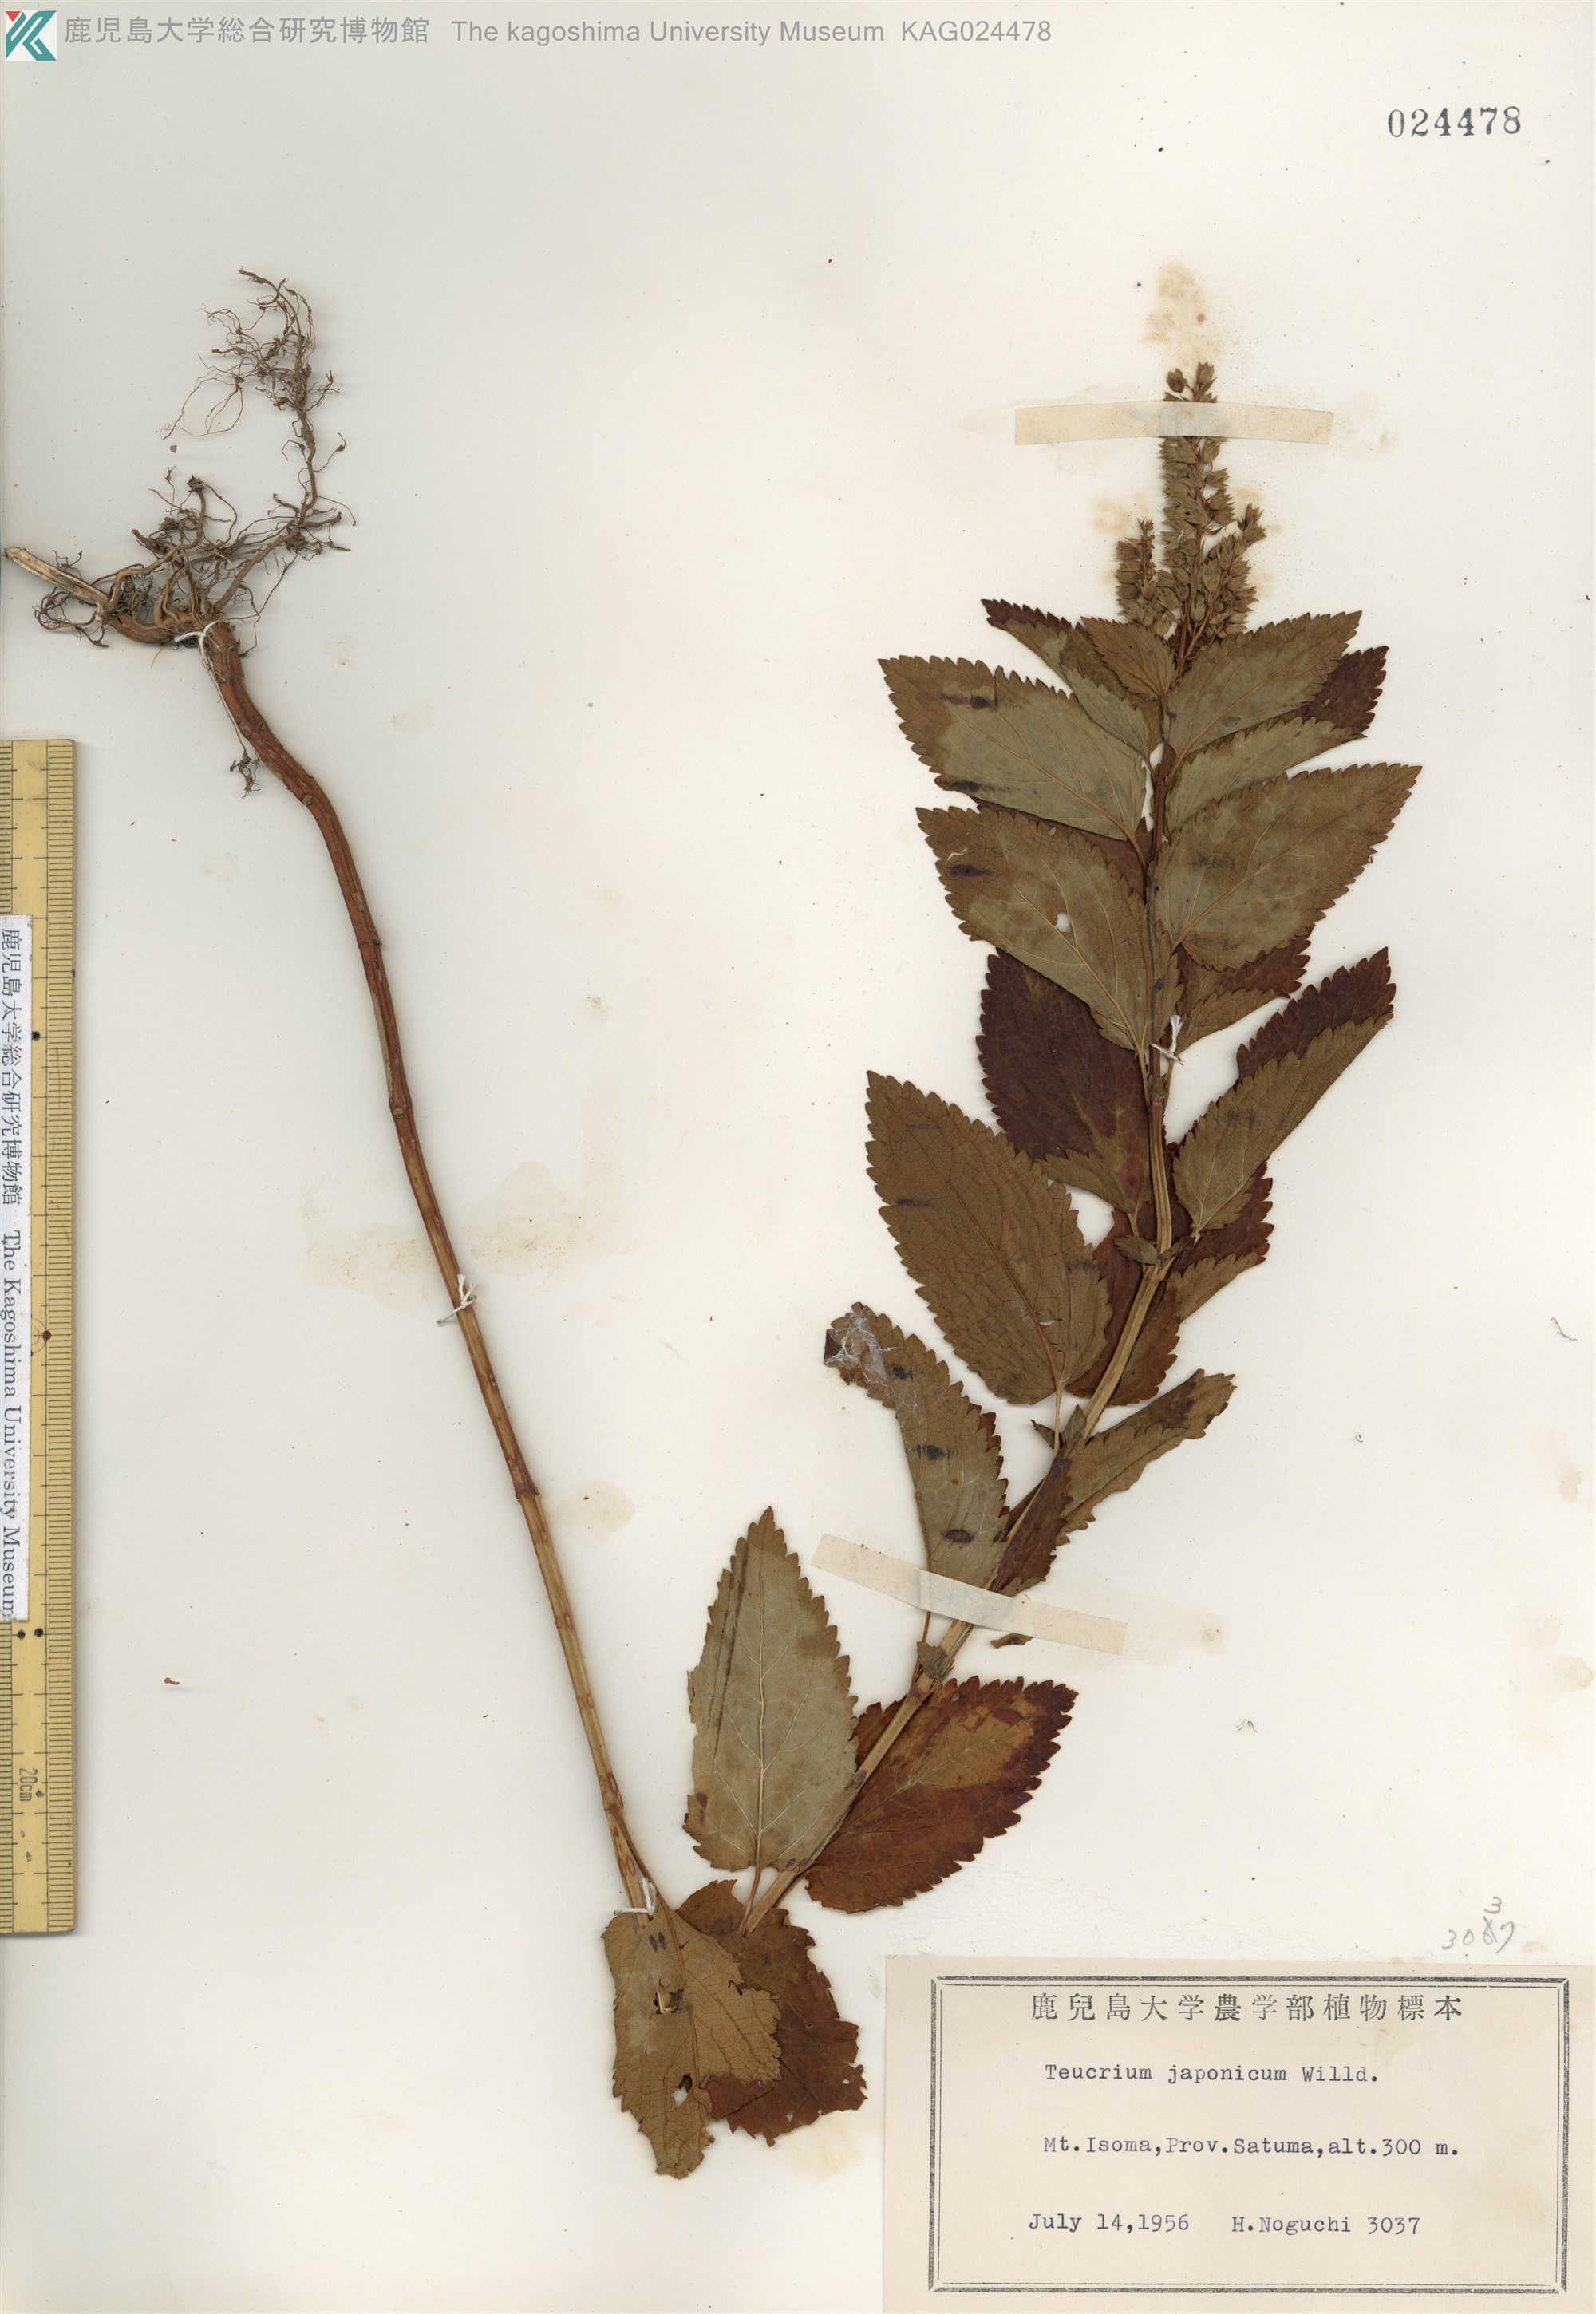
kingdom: Plantae
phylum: Tracheophyta
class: Magnoliopsida
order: Lamiales
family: Lamiaceae
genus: Teucrium
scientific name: Teucrium japonicum
